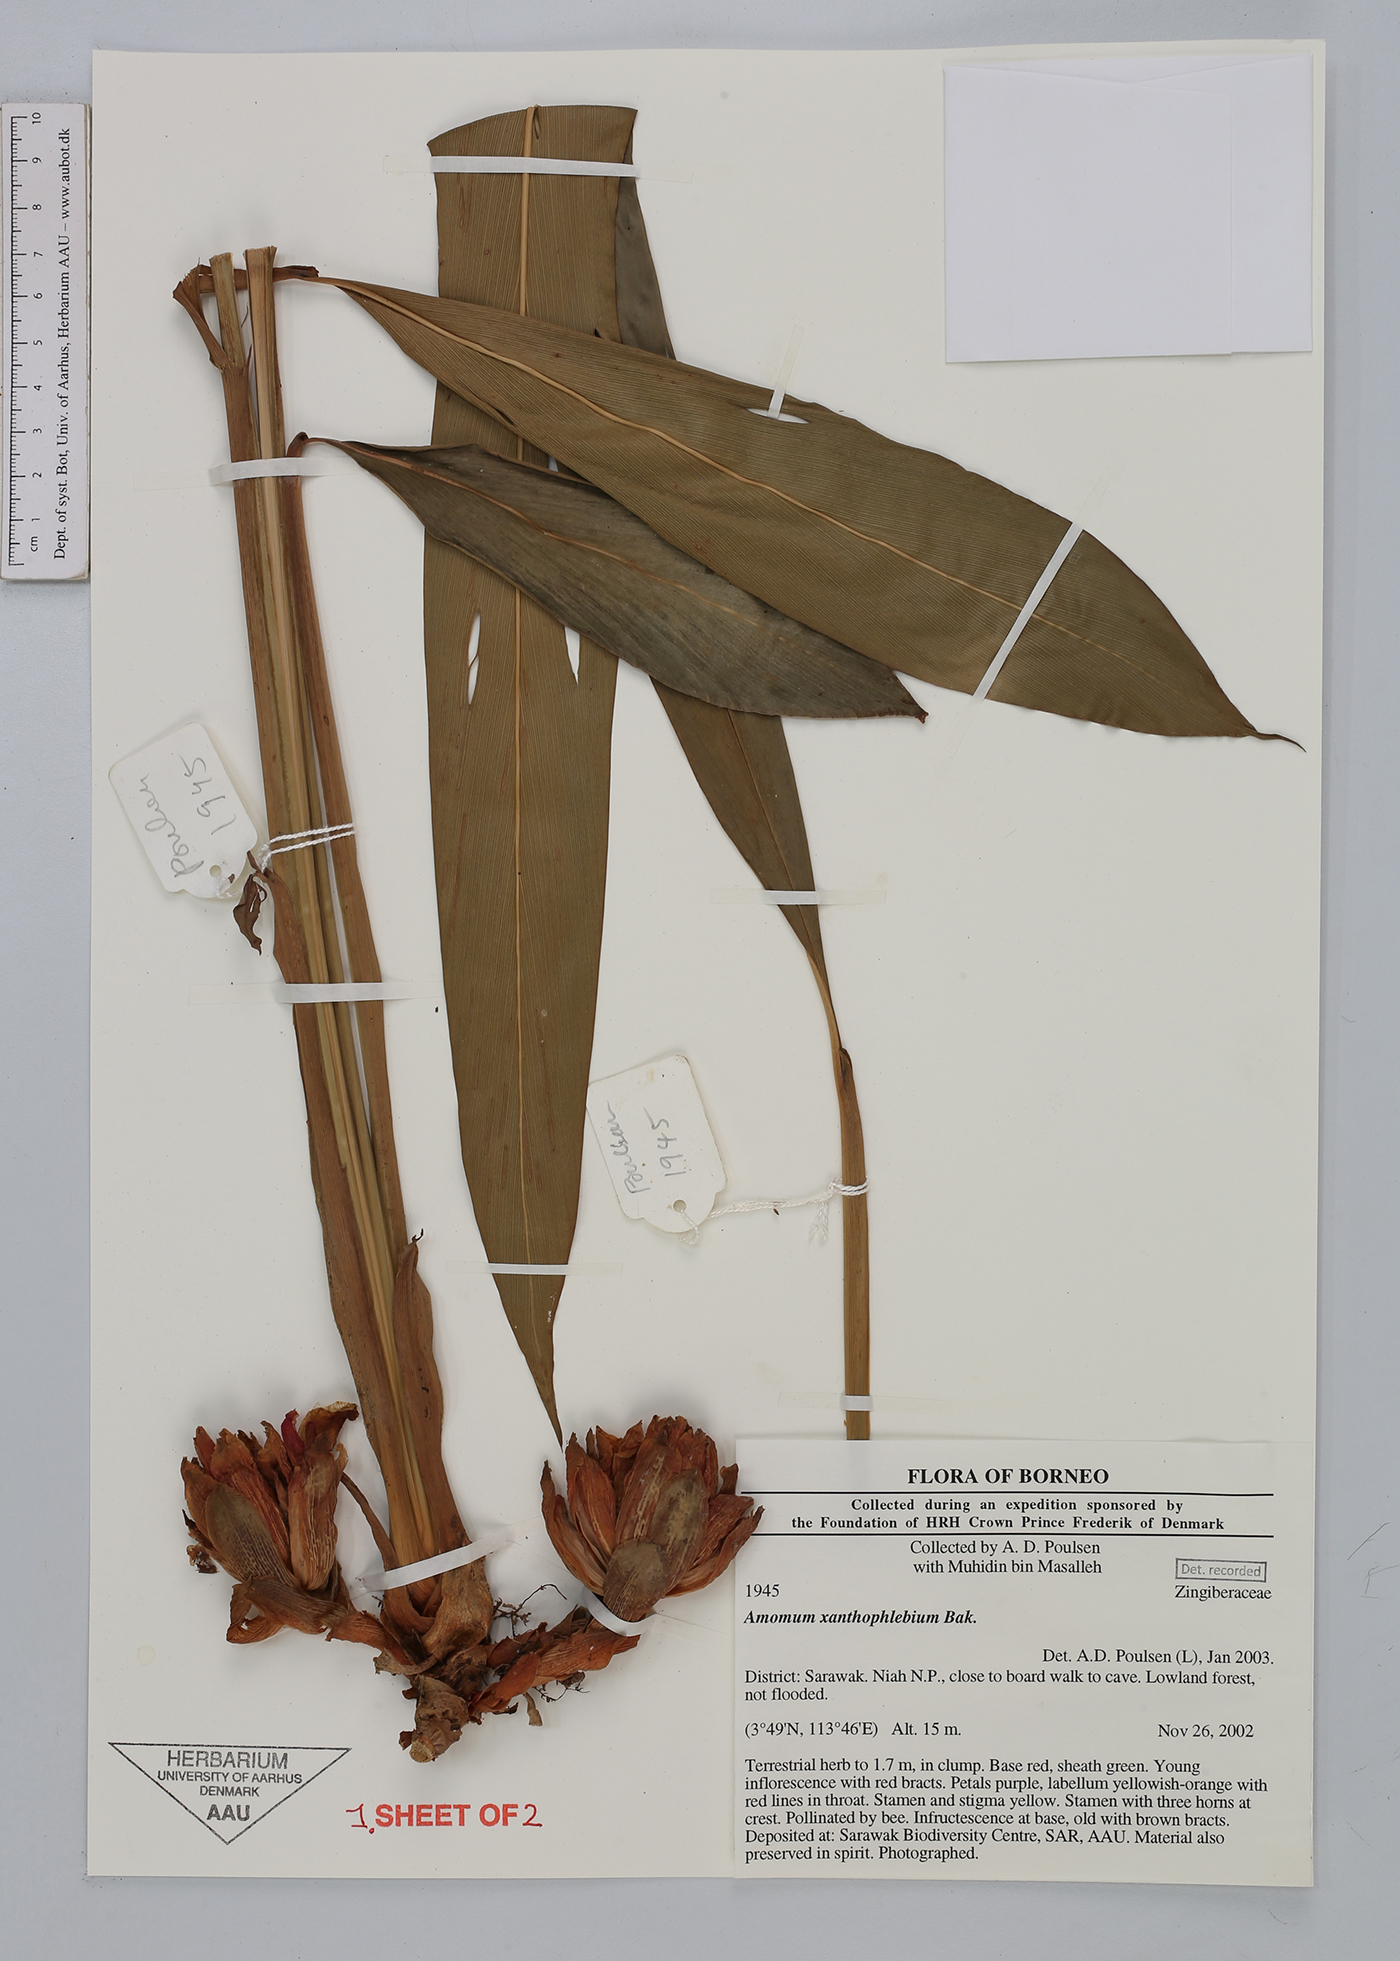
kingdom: Plantae
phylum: Tracheophyta
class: Liliopsida
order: Zingiberales
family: Zingiberaceae
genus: Conamomum
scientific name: Conamomum xanthophlebium
